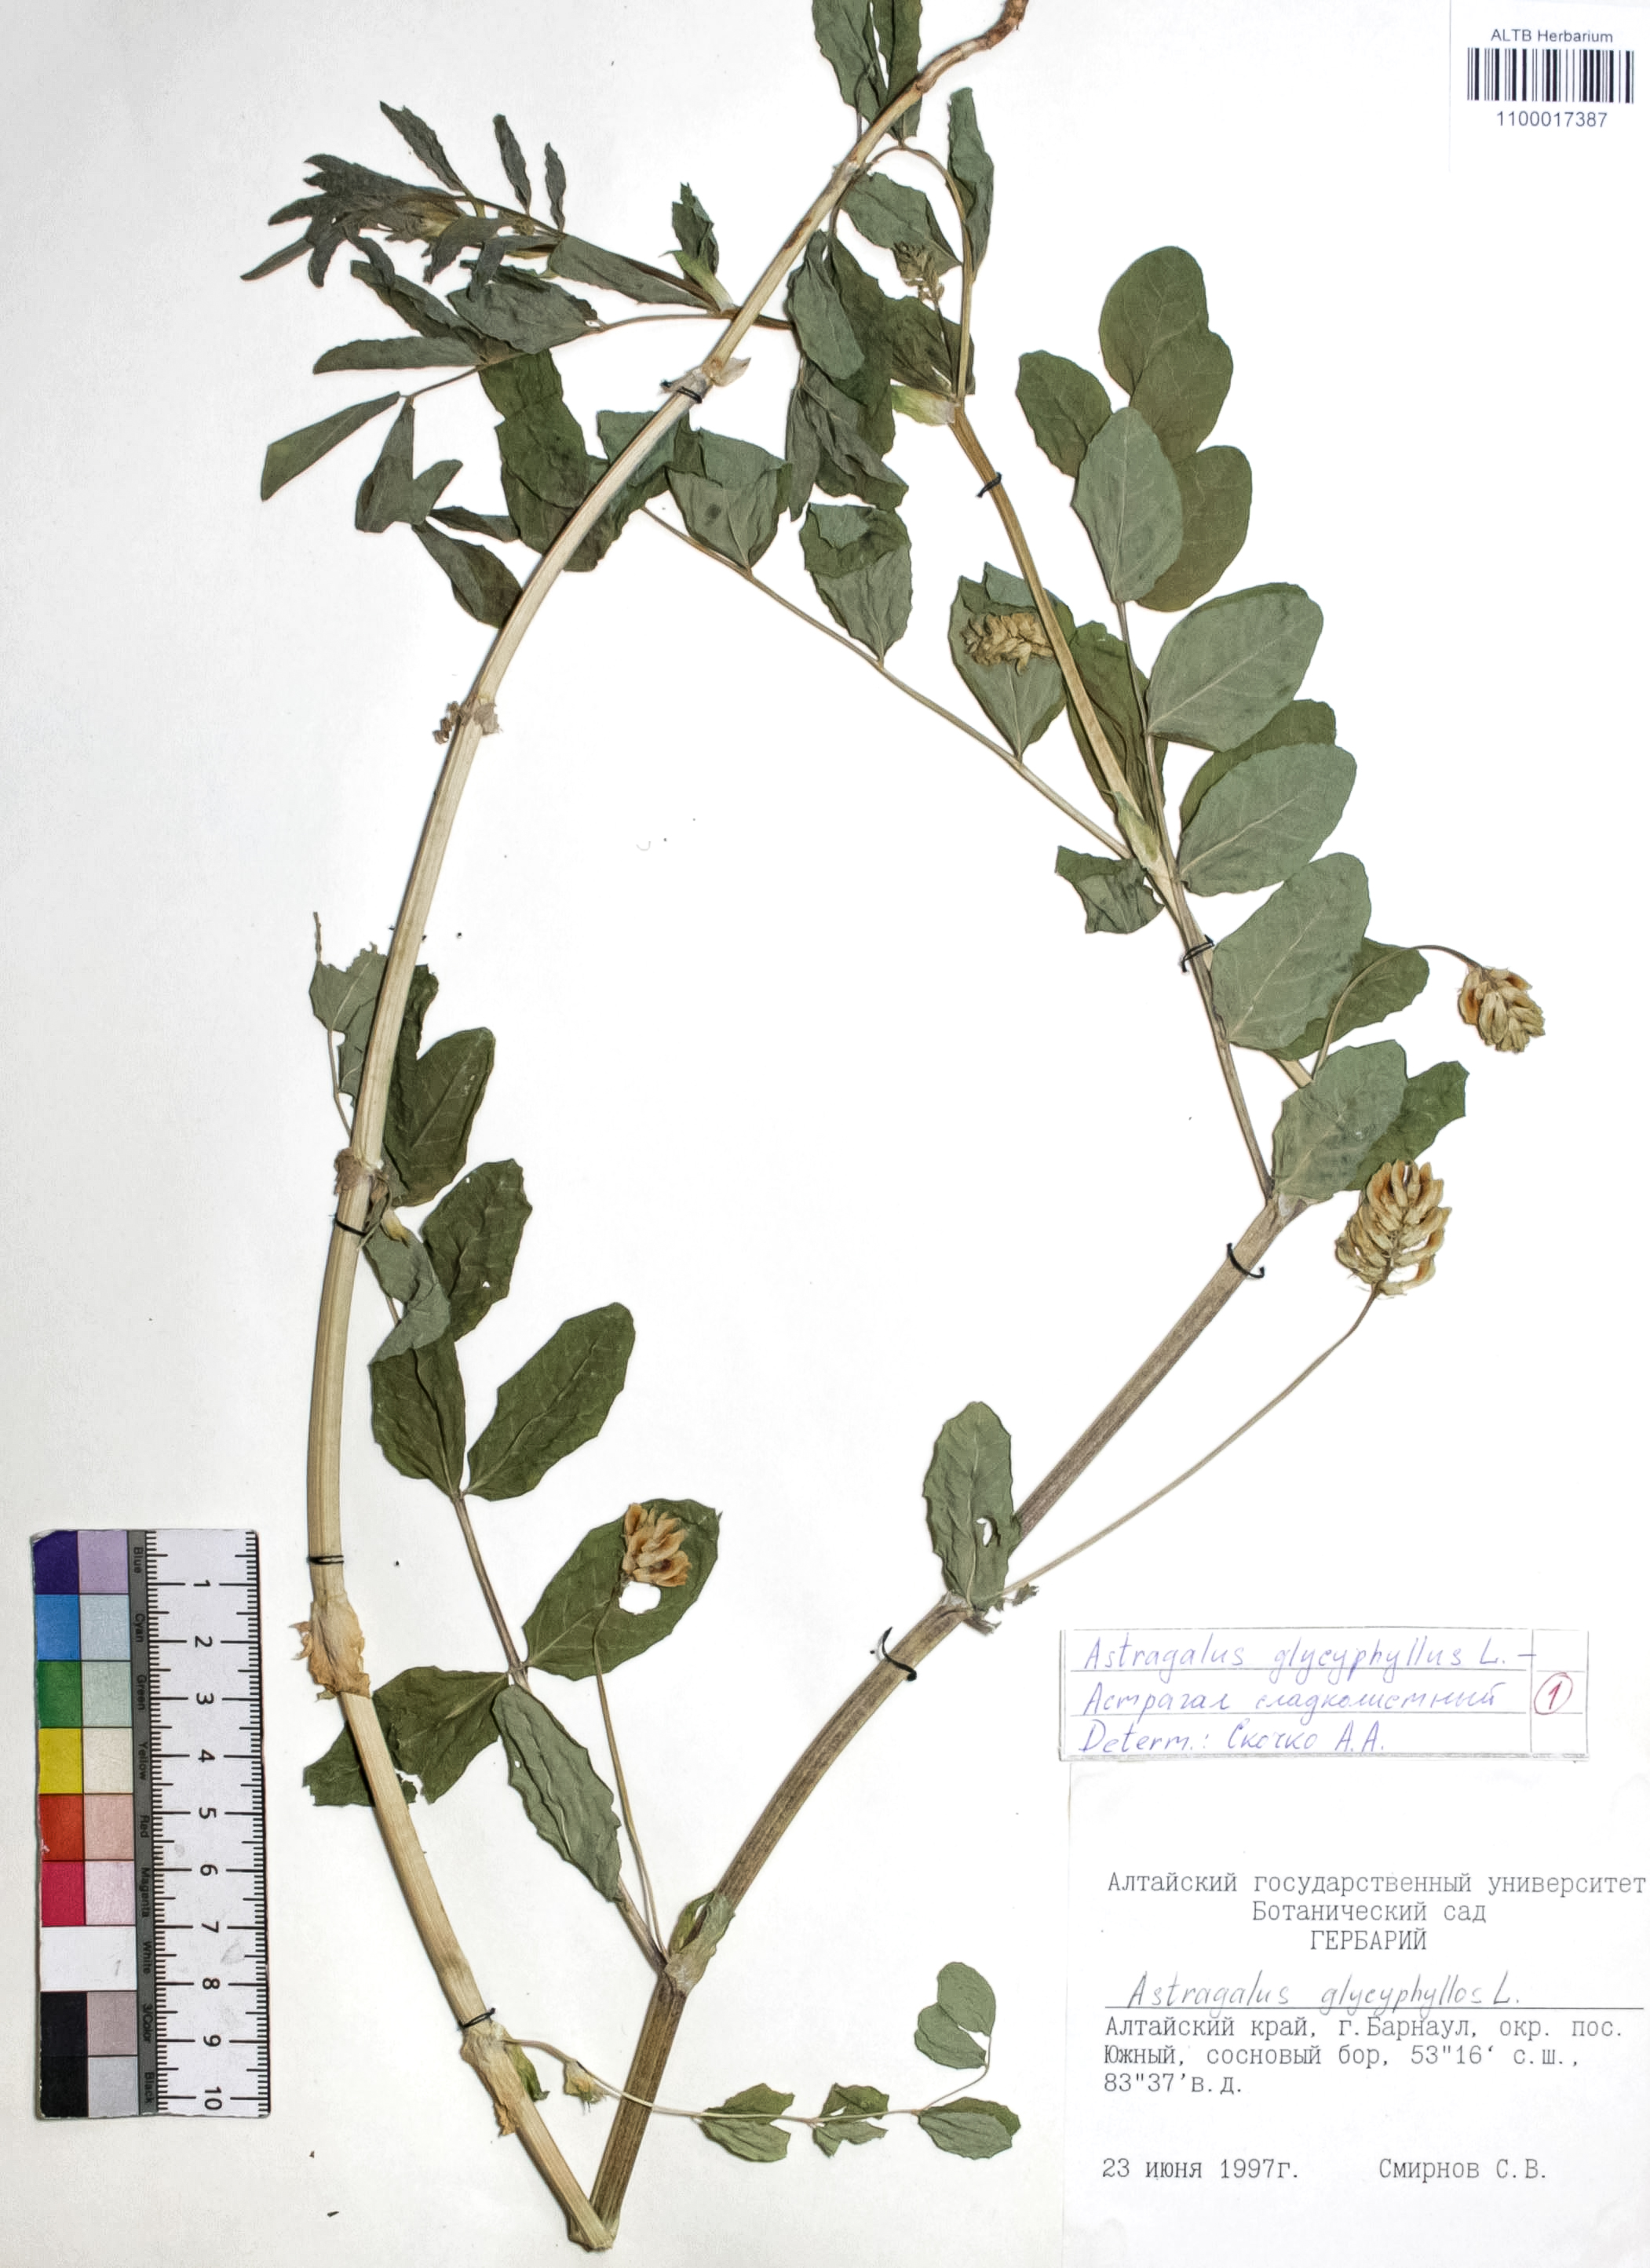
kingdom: Plantae
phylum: Tracheophyta
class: Magnoliopsida
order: Fabales
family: Fabaceae
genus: Astragalus
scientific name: Astragalus glycyphyllos
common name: Wild liquorice
